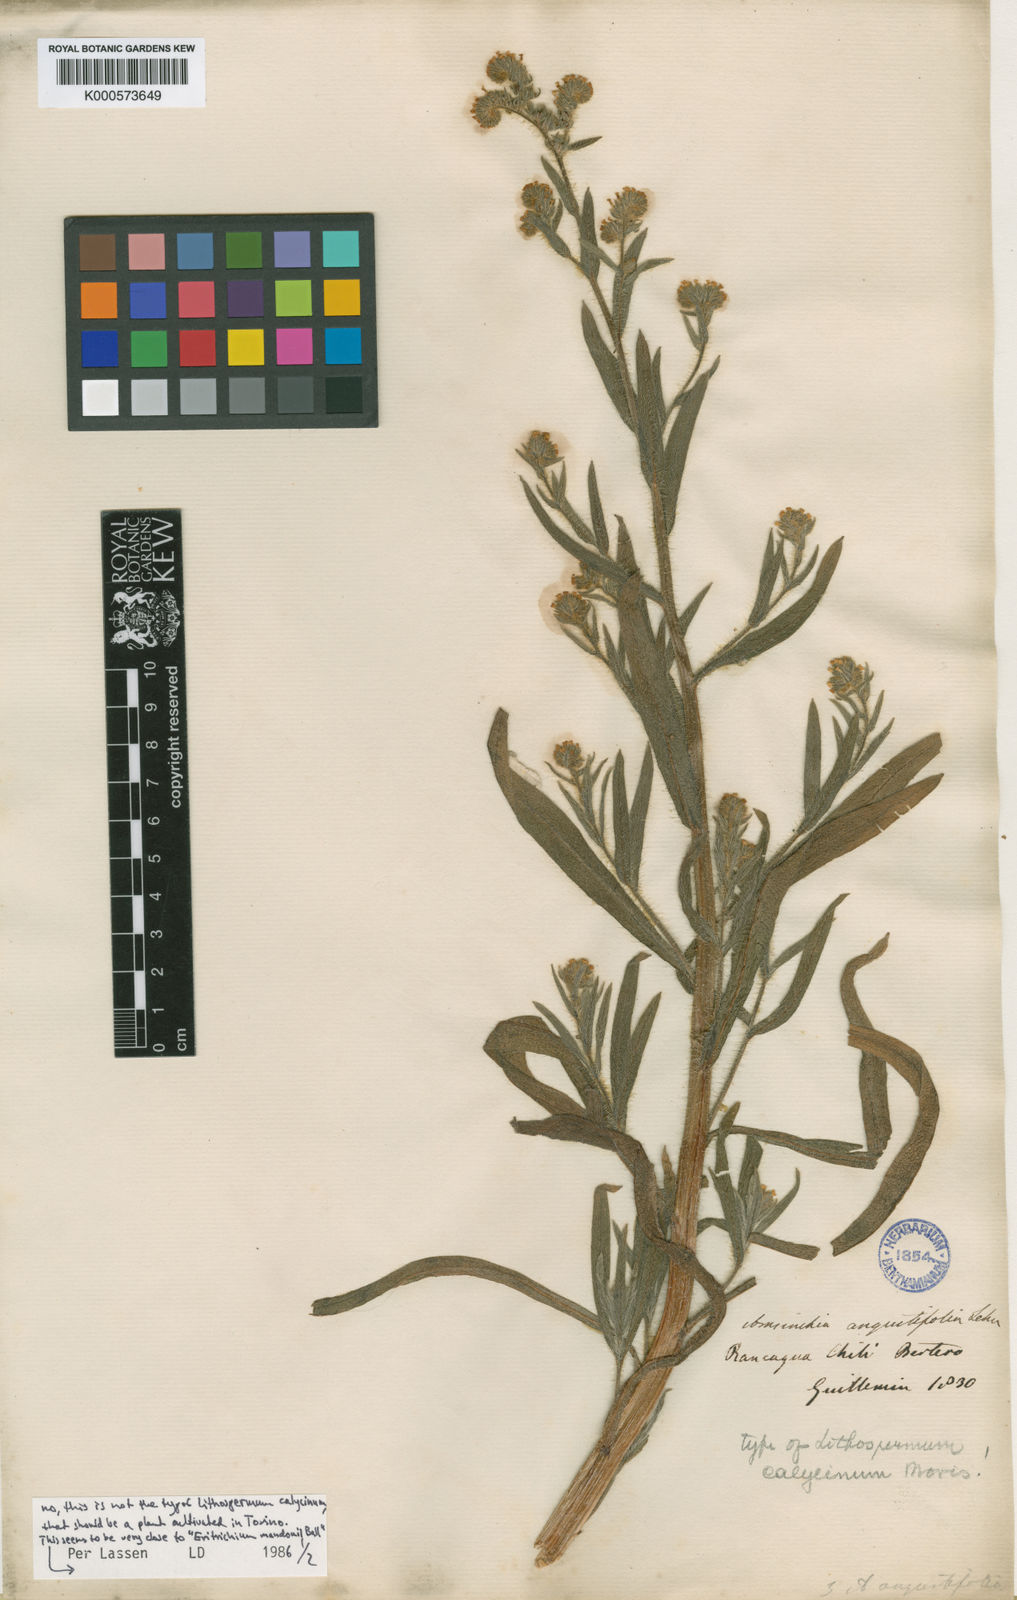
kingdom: Plantae
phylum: Tracheophyta
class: Magnoliopsida
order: Boraginales
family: Boraginaceae
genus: Amsinckia
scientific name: Amsinckia calycina
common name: Hairy fiddleneck
